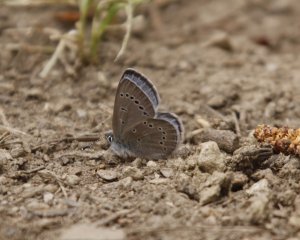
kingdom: Animalia
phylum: Arthropoda
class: Insecta
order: Lepidoptera
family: Lycaenidae
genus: Glaucopsyche
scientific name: Glaucopsyche lygdamus
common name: Silvery Blue
